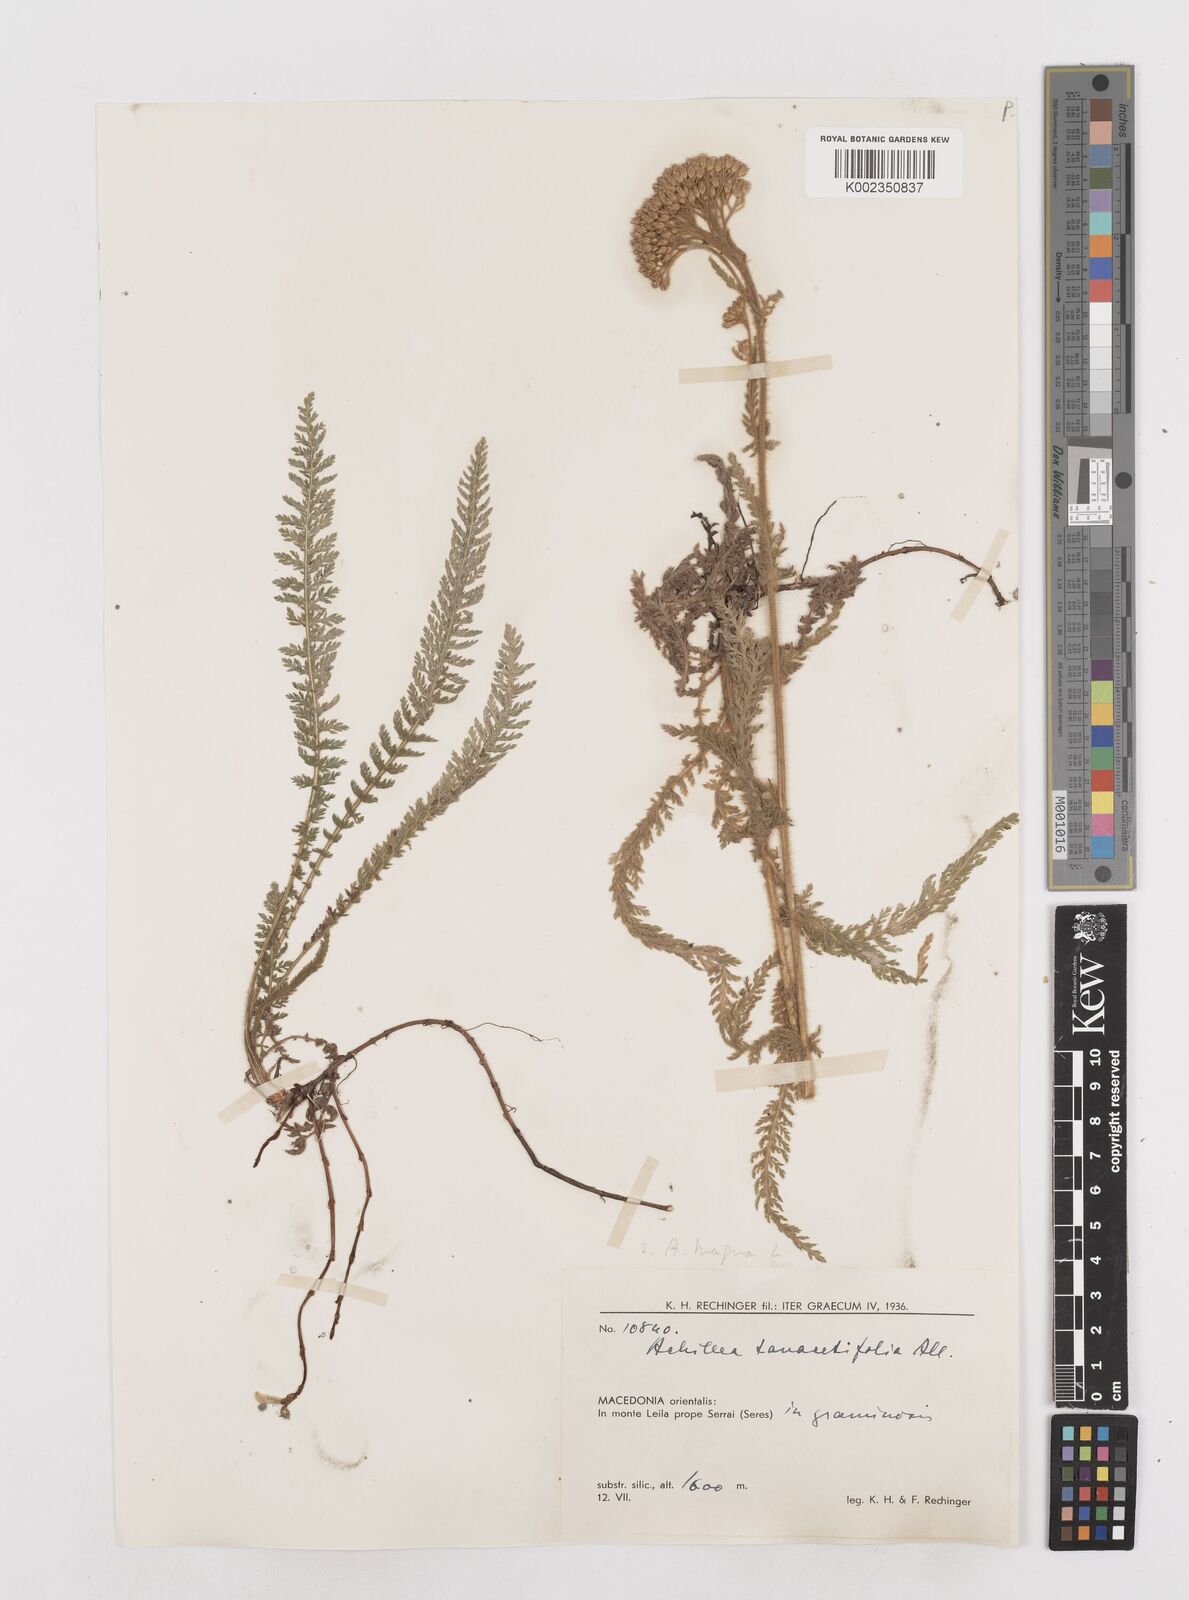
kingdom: Plantae
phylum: Tracheophyta
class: Magnoliopsida
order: Asterales
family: Asteraceae
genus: Achillea
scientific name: Achillea distans
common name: Tall yarrow
